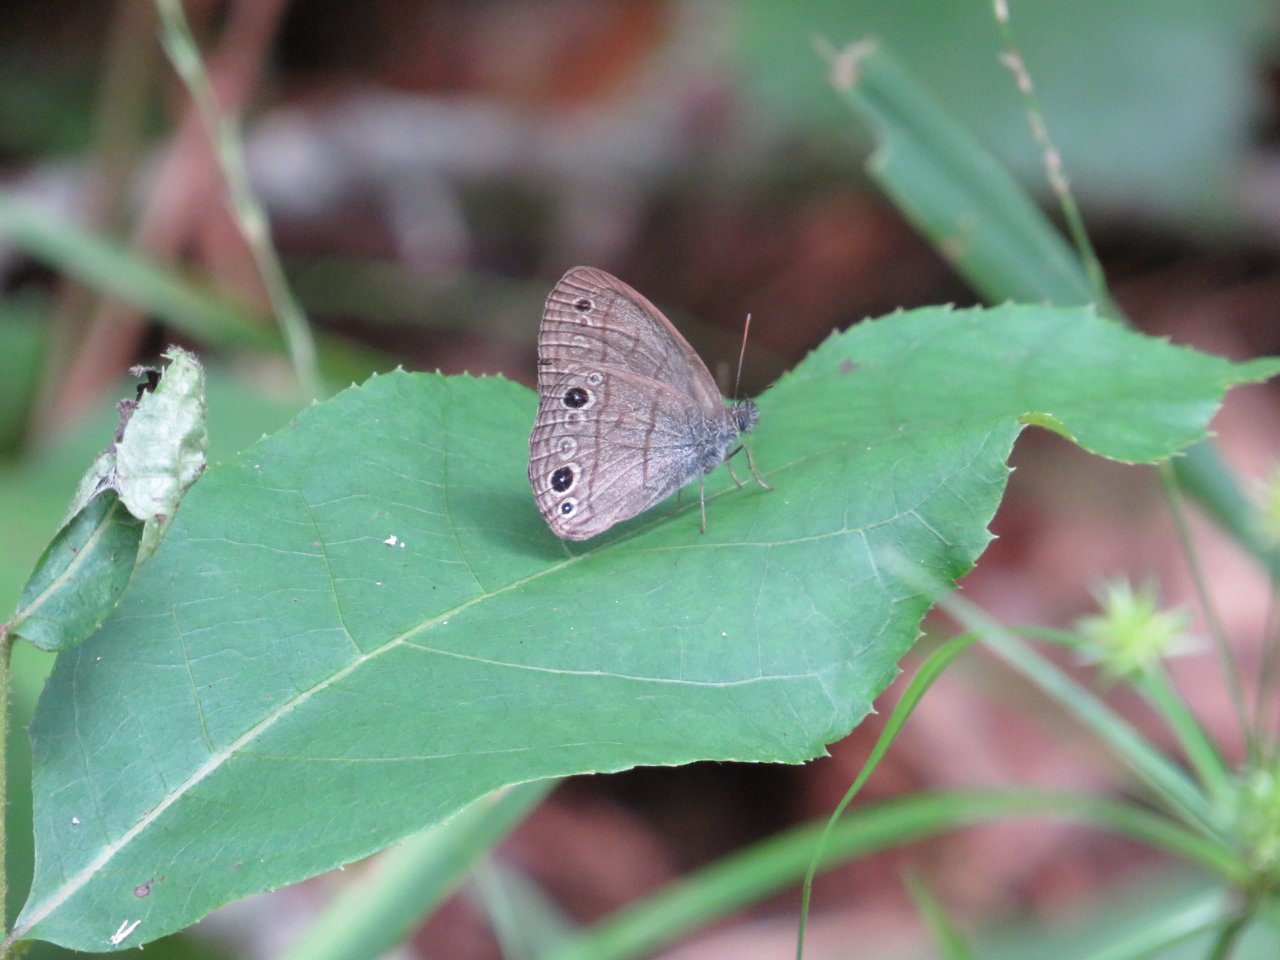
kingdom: Animalia
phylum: Arthropoda
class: Insecta
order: Lepidoptera
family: Nymphalidae
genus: Hermeuptychia
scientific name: Hermeuptychia hermes
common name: Carolina Satyr
